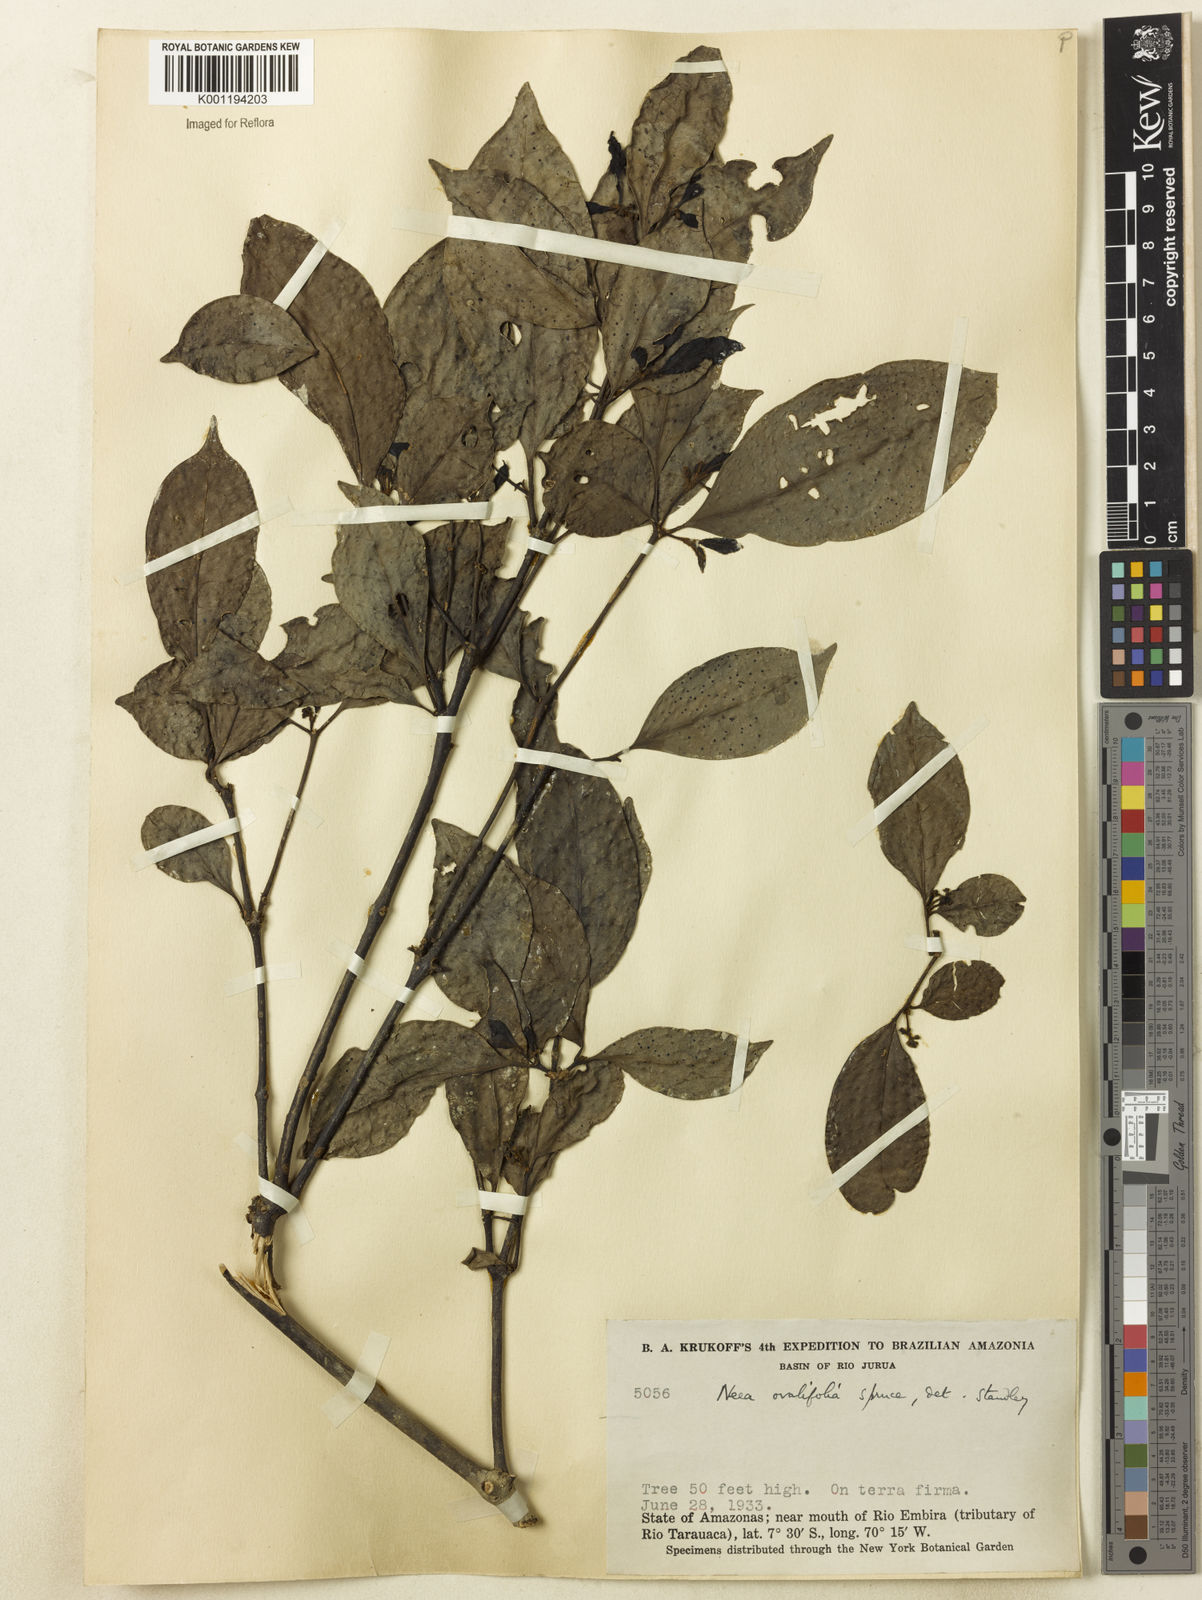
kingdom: Plantae
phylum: Tracheophyta
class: Magnoliopsida
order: Caryophyllales
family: Nyctaginaceae
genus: Neea
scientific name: Neea ovalifolia
